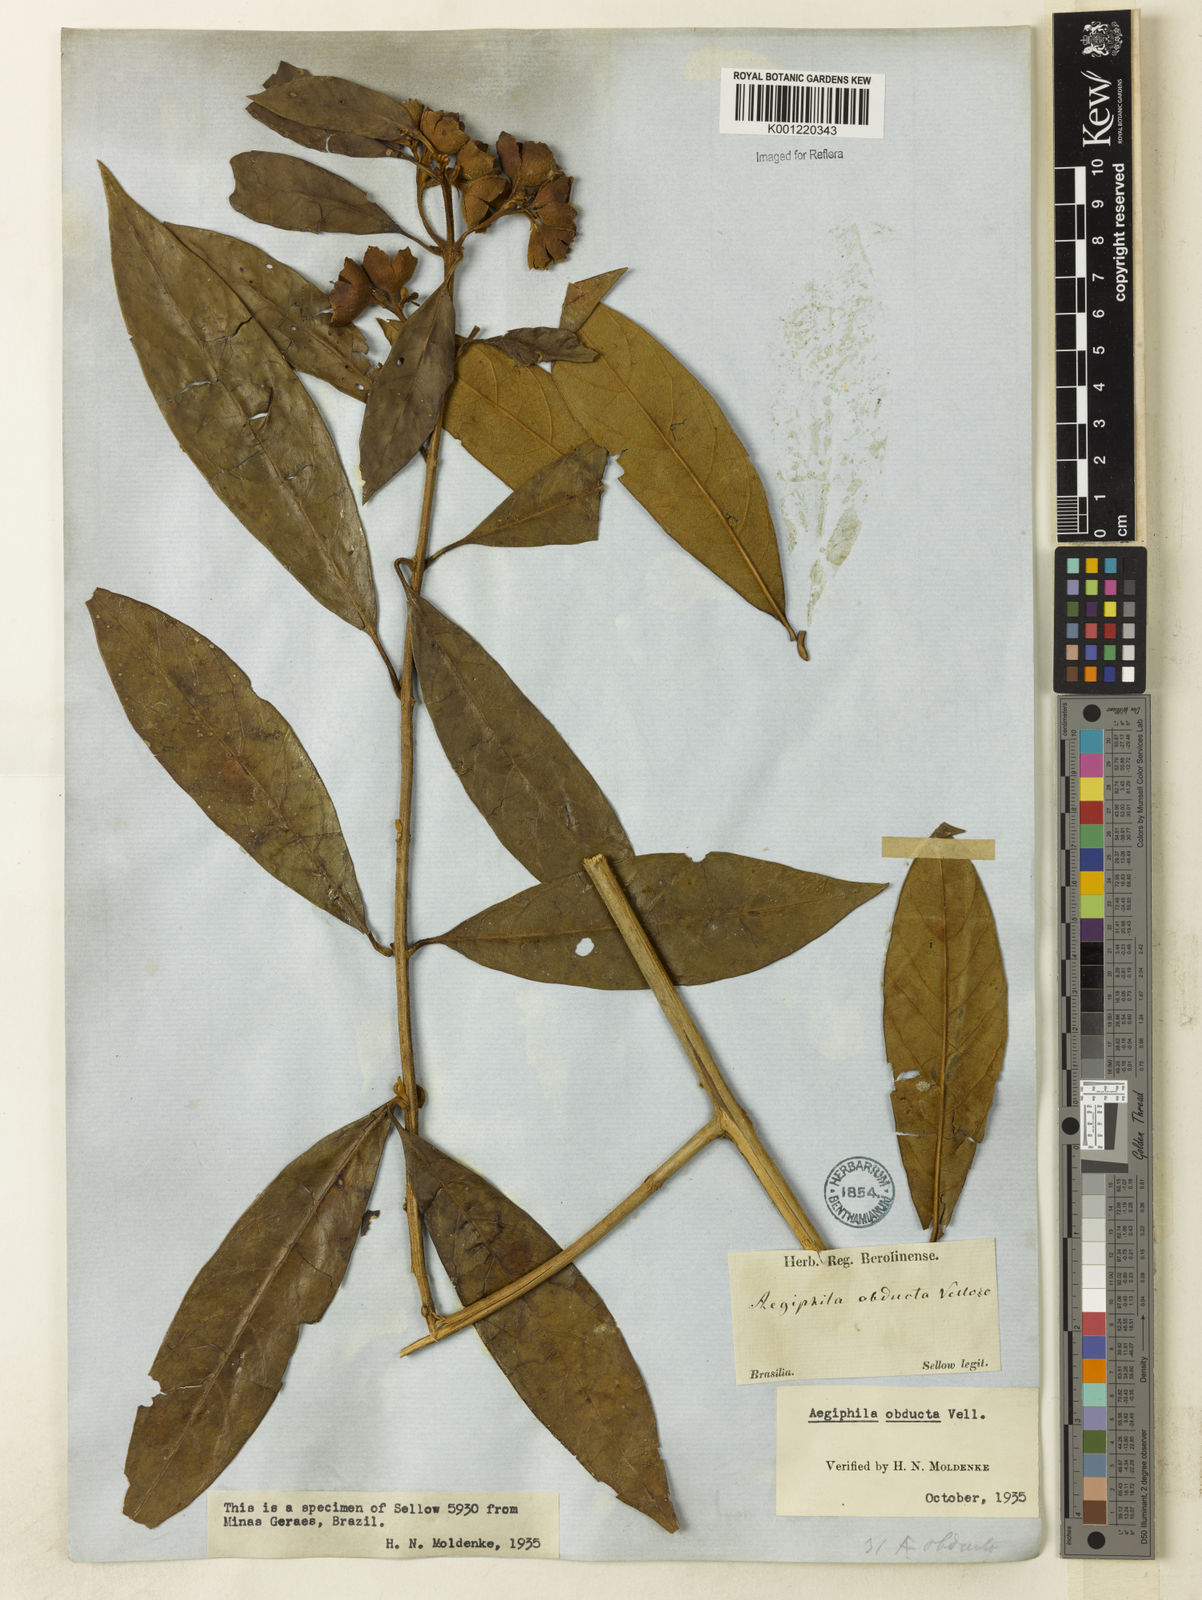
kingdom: Plantae
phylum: Tracheophyta
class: Magnoliopsida
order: Lamiales
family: Lamiaceae
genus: Aegiphila
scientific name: Aegiphila obducta
